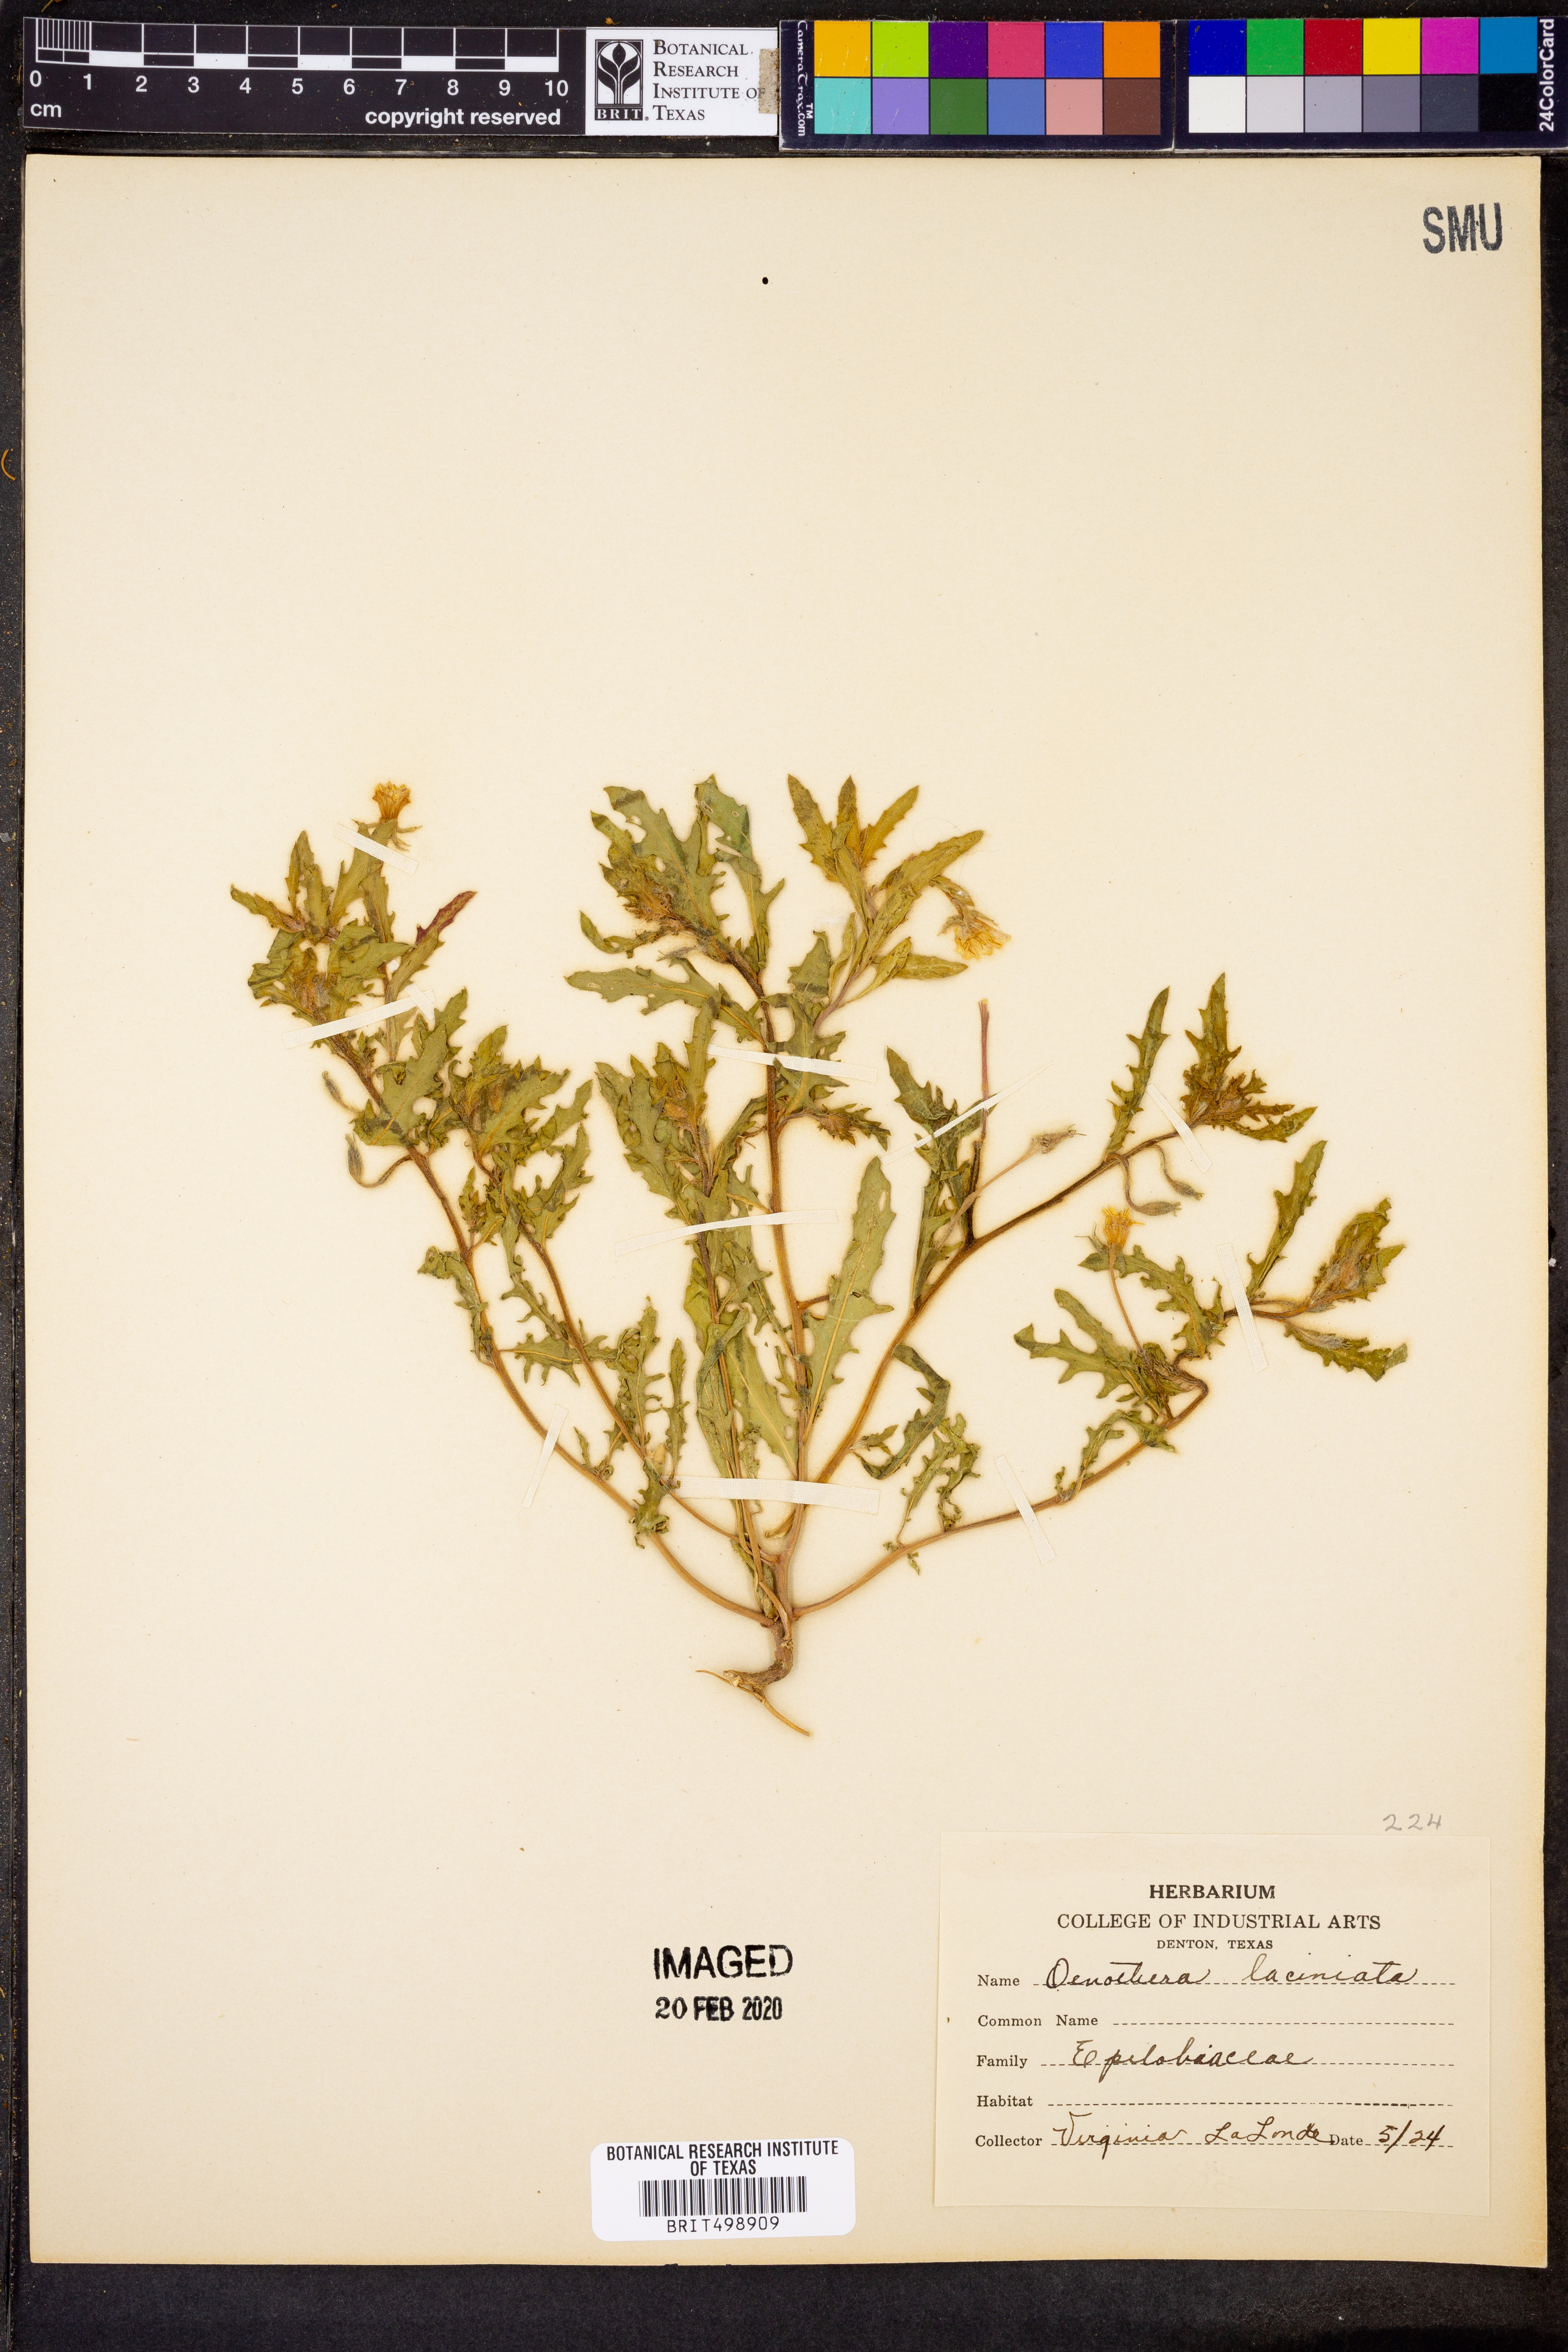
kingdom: Plantae
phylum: Tracheophyta
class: Magnoliopsida
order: Myrtales
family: Onagraceae
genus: Oenothera
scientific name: Oenothera laciniata
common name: Cut-leaved evening-primrose
